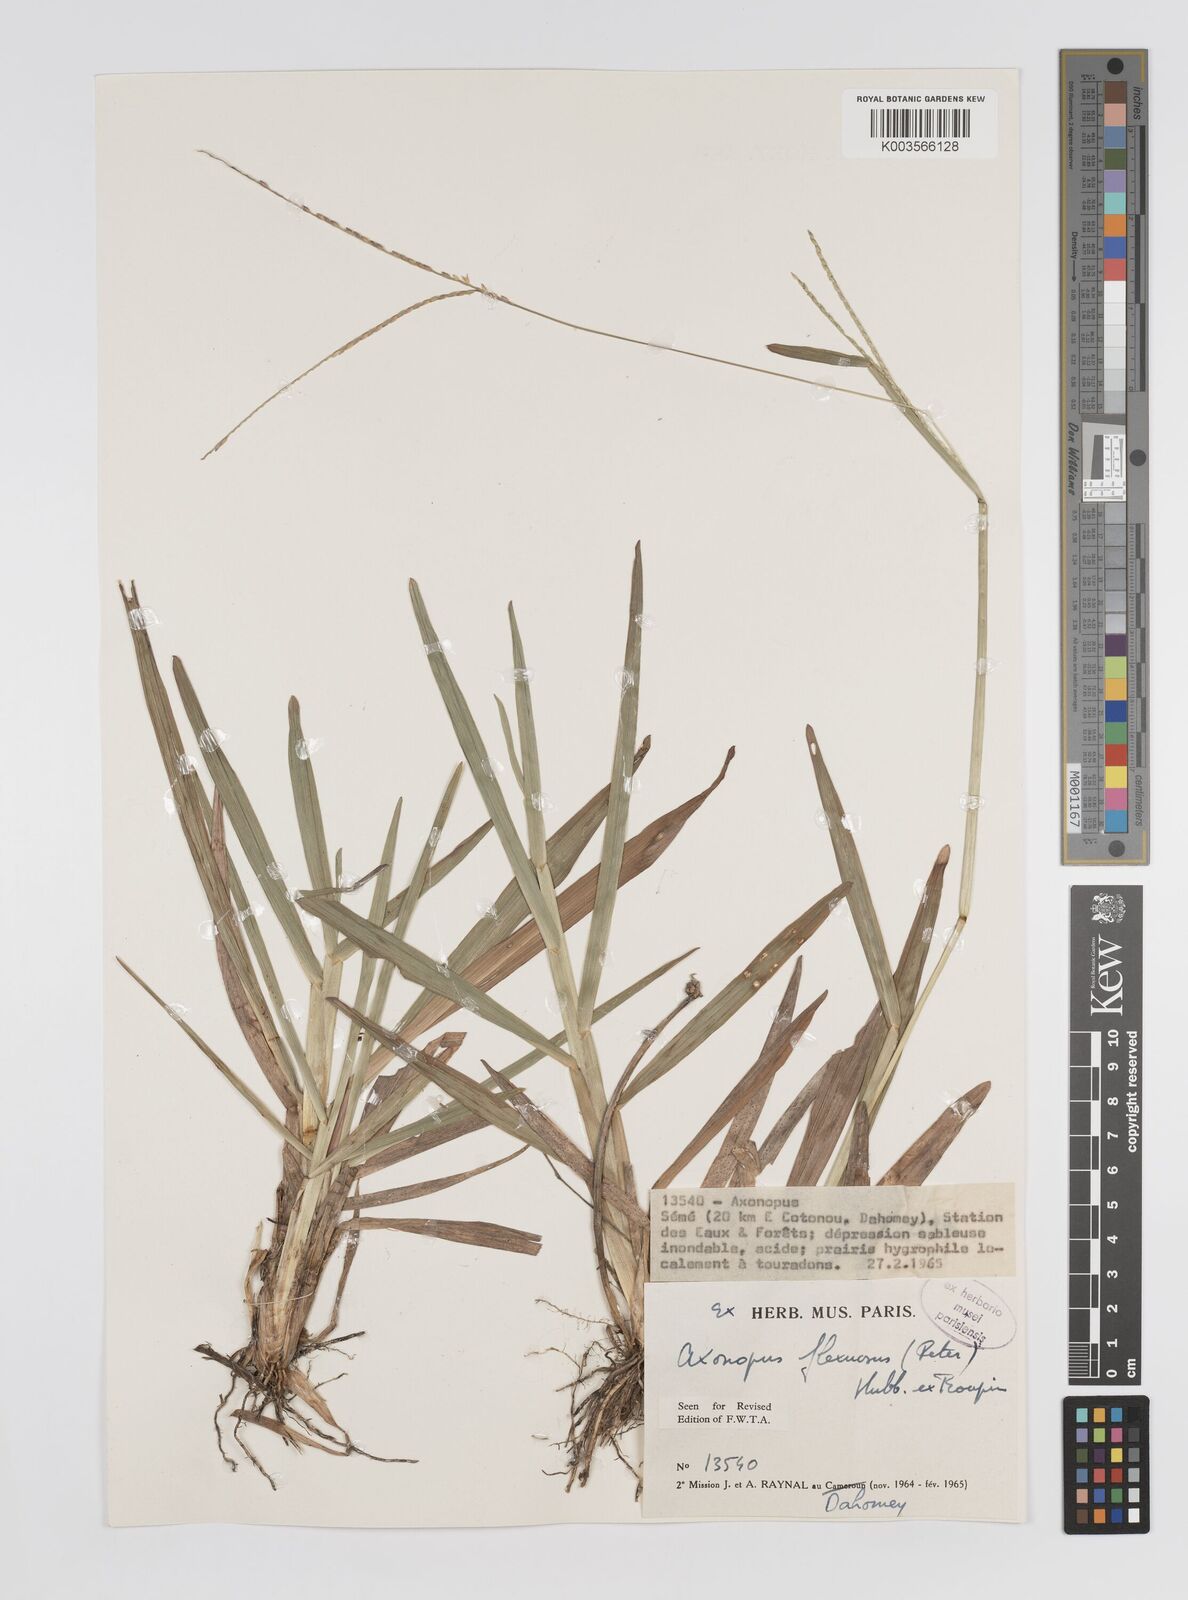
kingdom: Plantae
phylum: Tracheophyta
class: Liliopsida
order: Poales
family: Poaceae
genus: Axonopus
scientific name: Axonopus flexuosus
